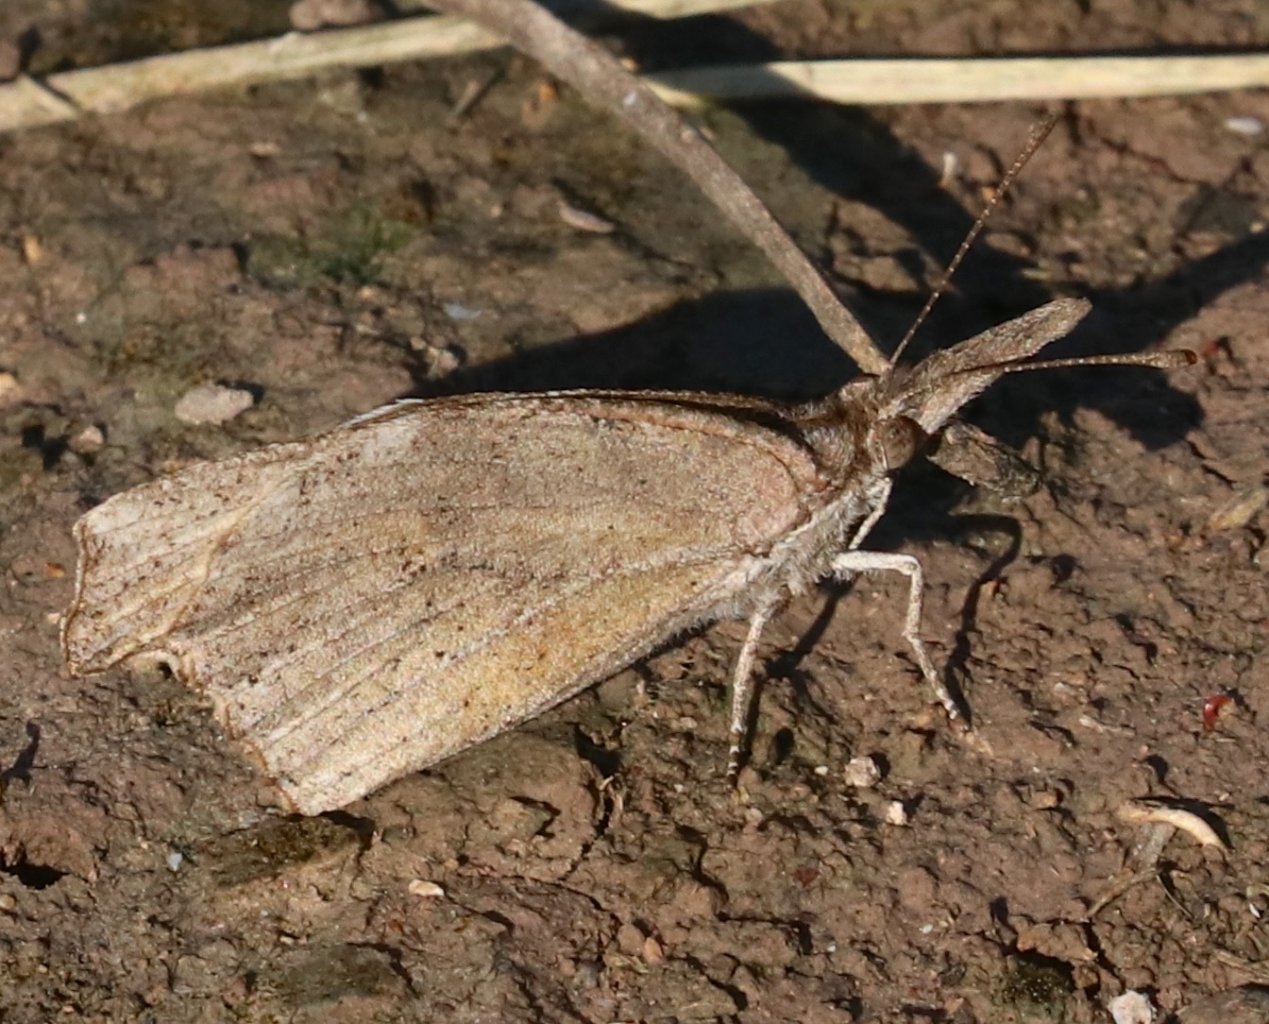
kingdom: Animalia
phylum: Arthropoda
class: Insecta
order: Lepidoptera
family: Nymphalidae
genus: Libytheana
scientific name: Libytheana carinenta
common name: American Snout
